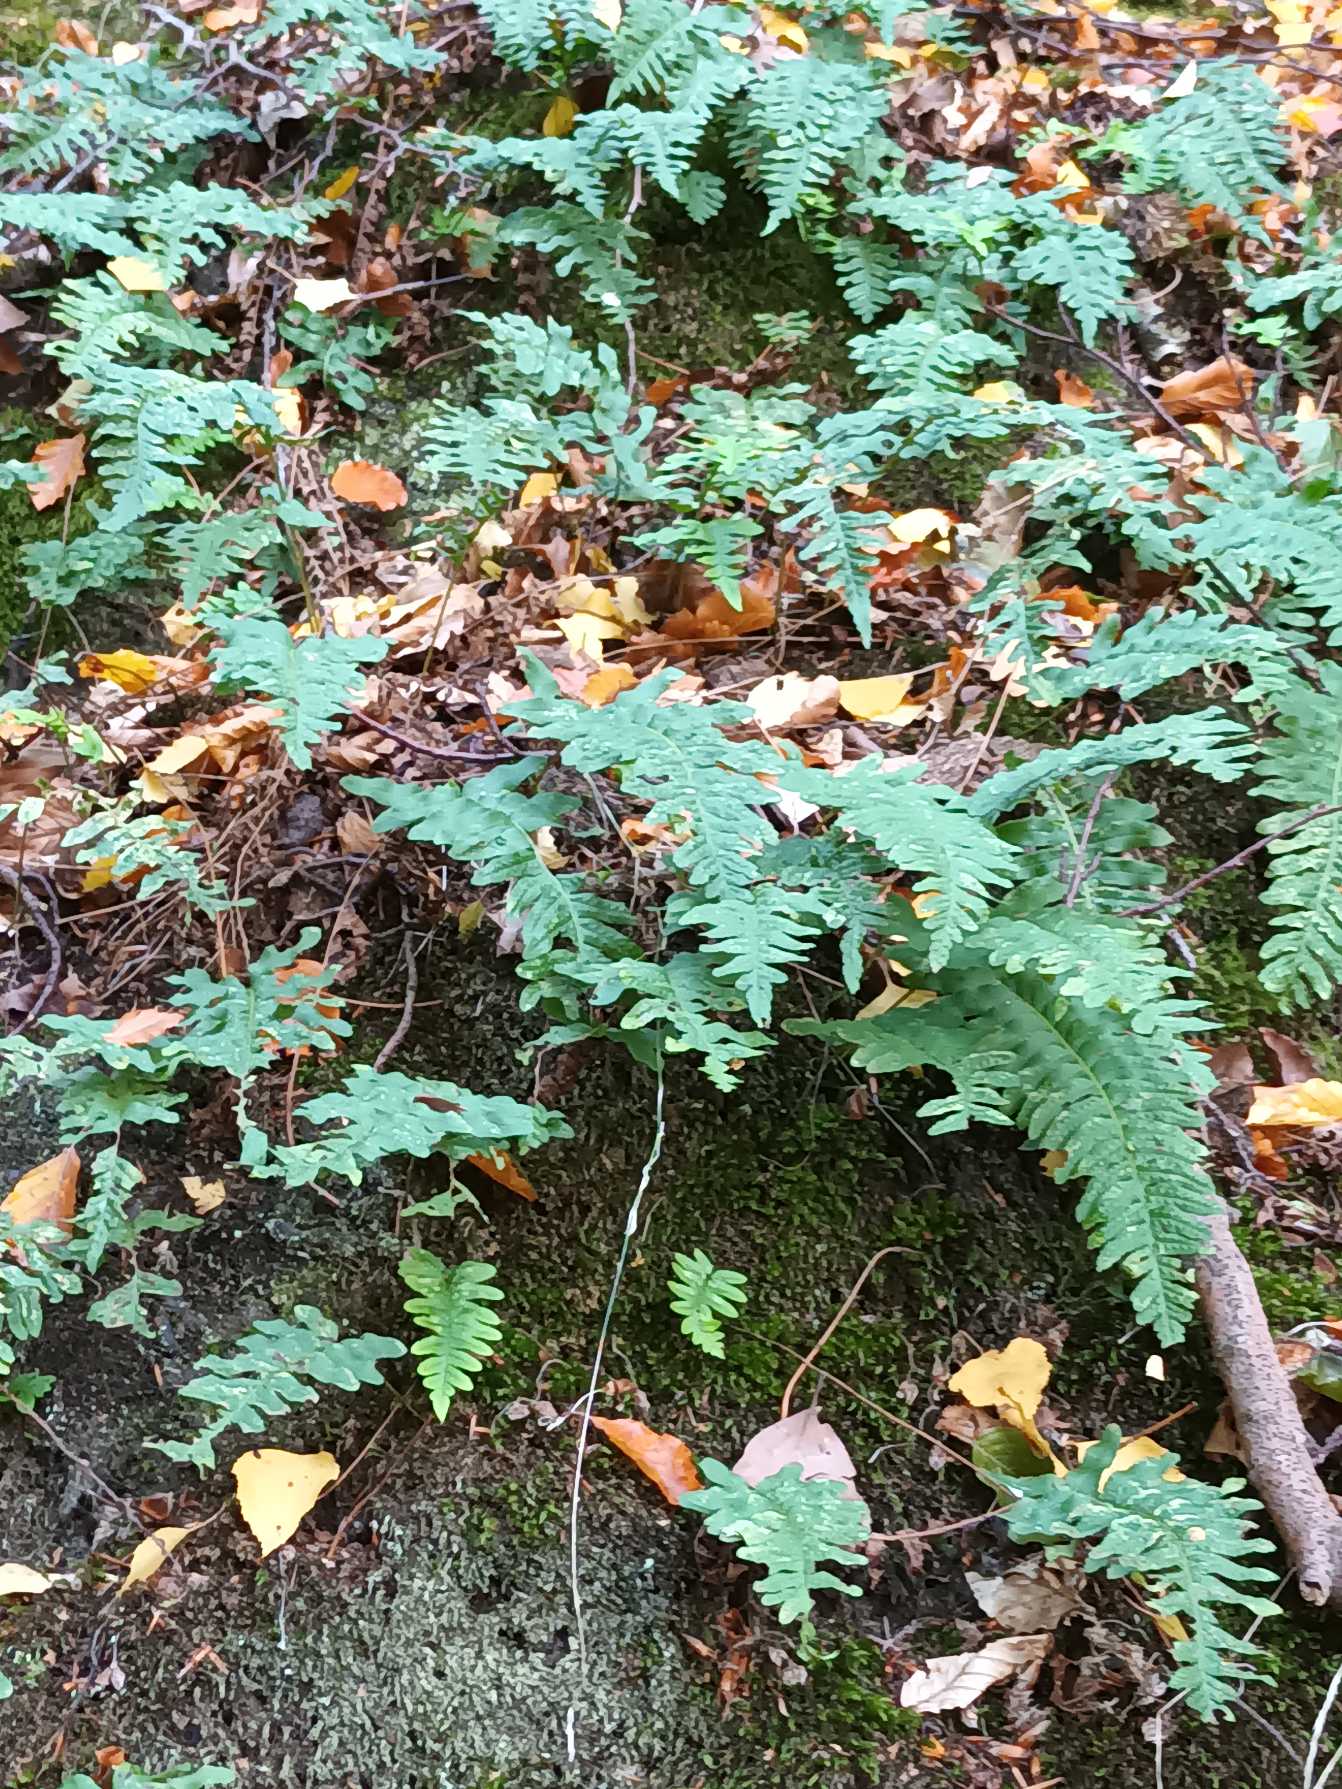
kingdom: Plantae
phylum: Tracheophyta
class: Polypodiopsida
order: Polypodiales
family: Polypodiaceae
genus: Polypodium
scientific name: Polypodium vulgare
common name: Almindelig engelsød
